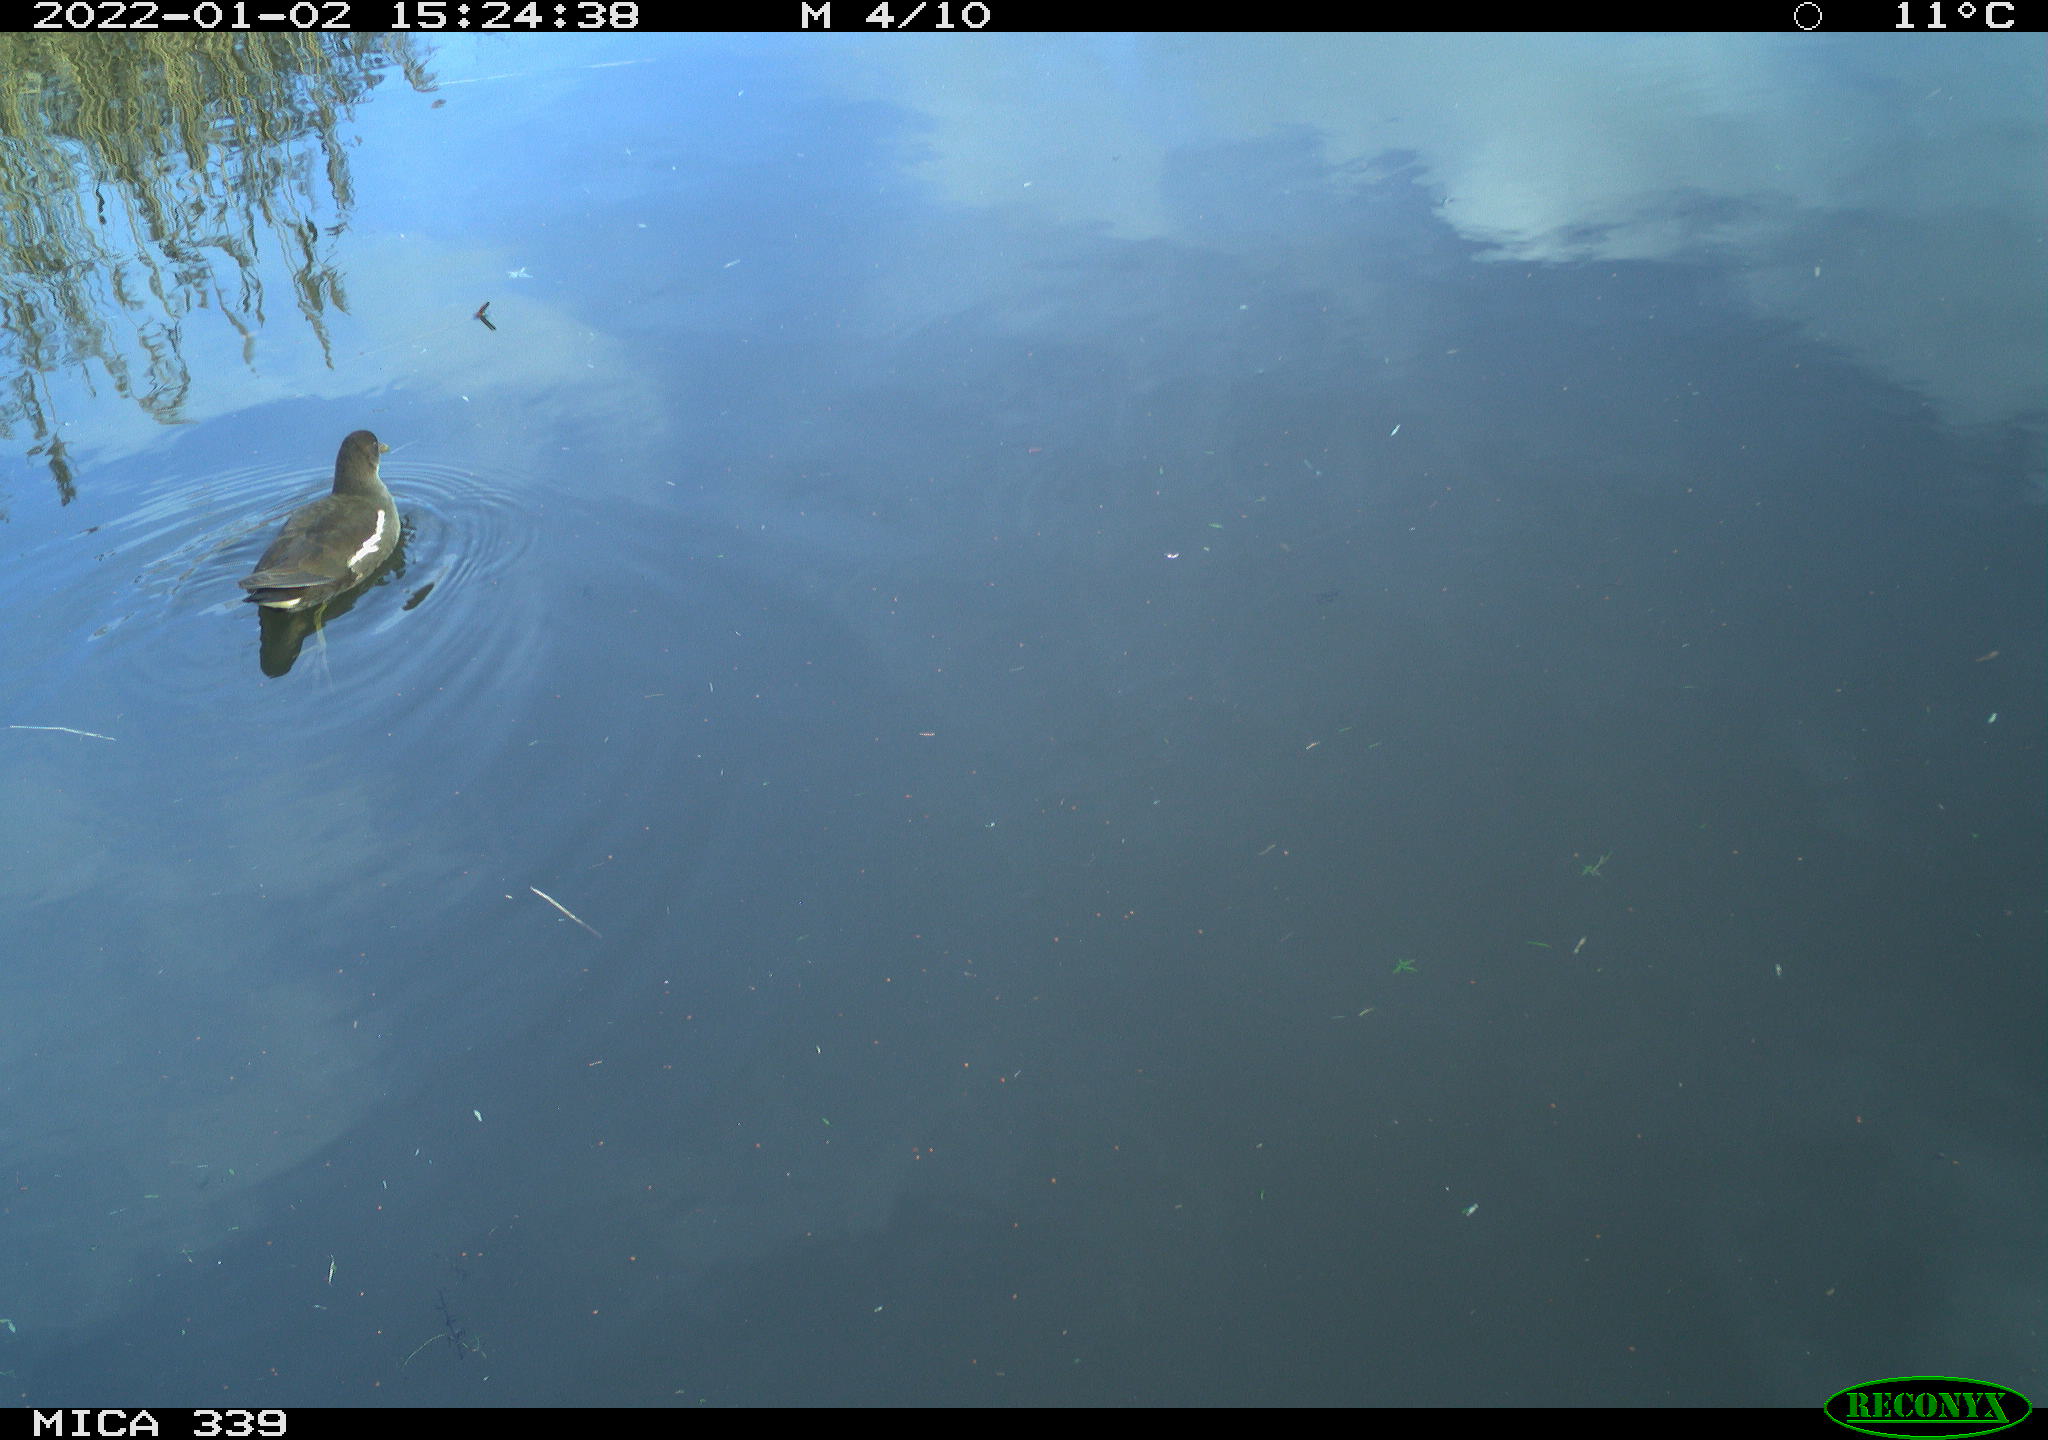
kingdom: Animalia
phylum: Chordata
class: Aves
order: Gruiformes
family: Rallidae
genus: Gallinula
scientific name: Gallinula chloropus
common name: Common moorhen
